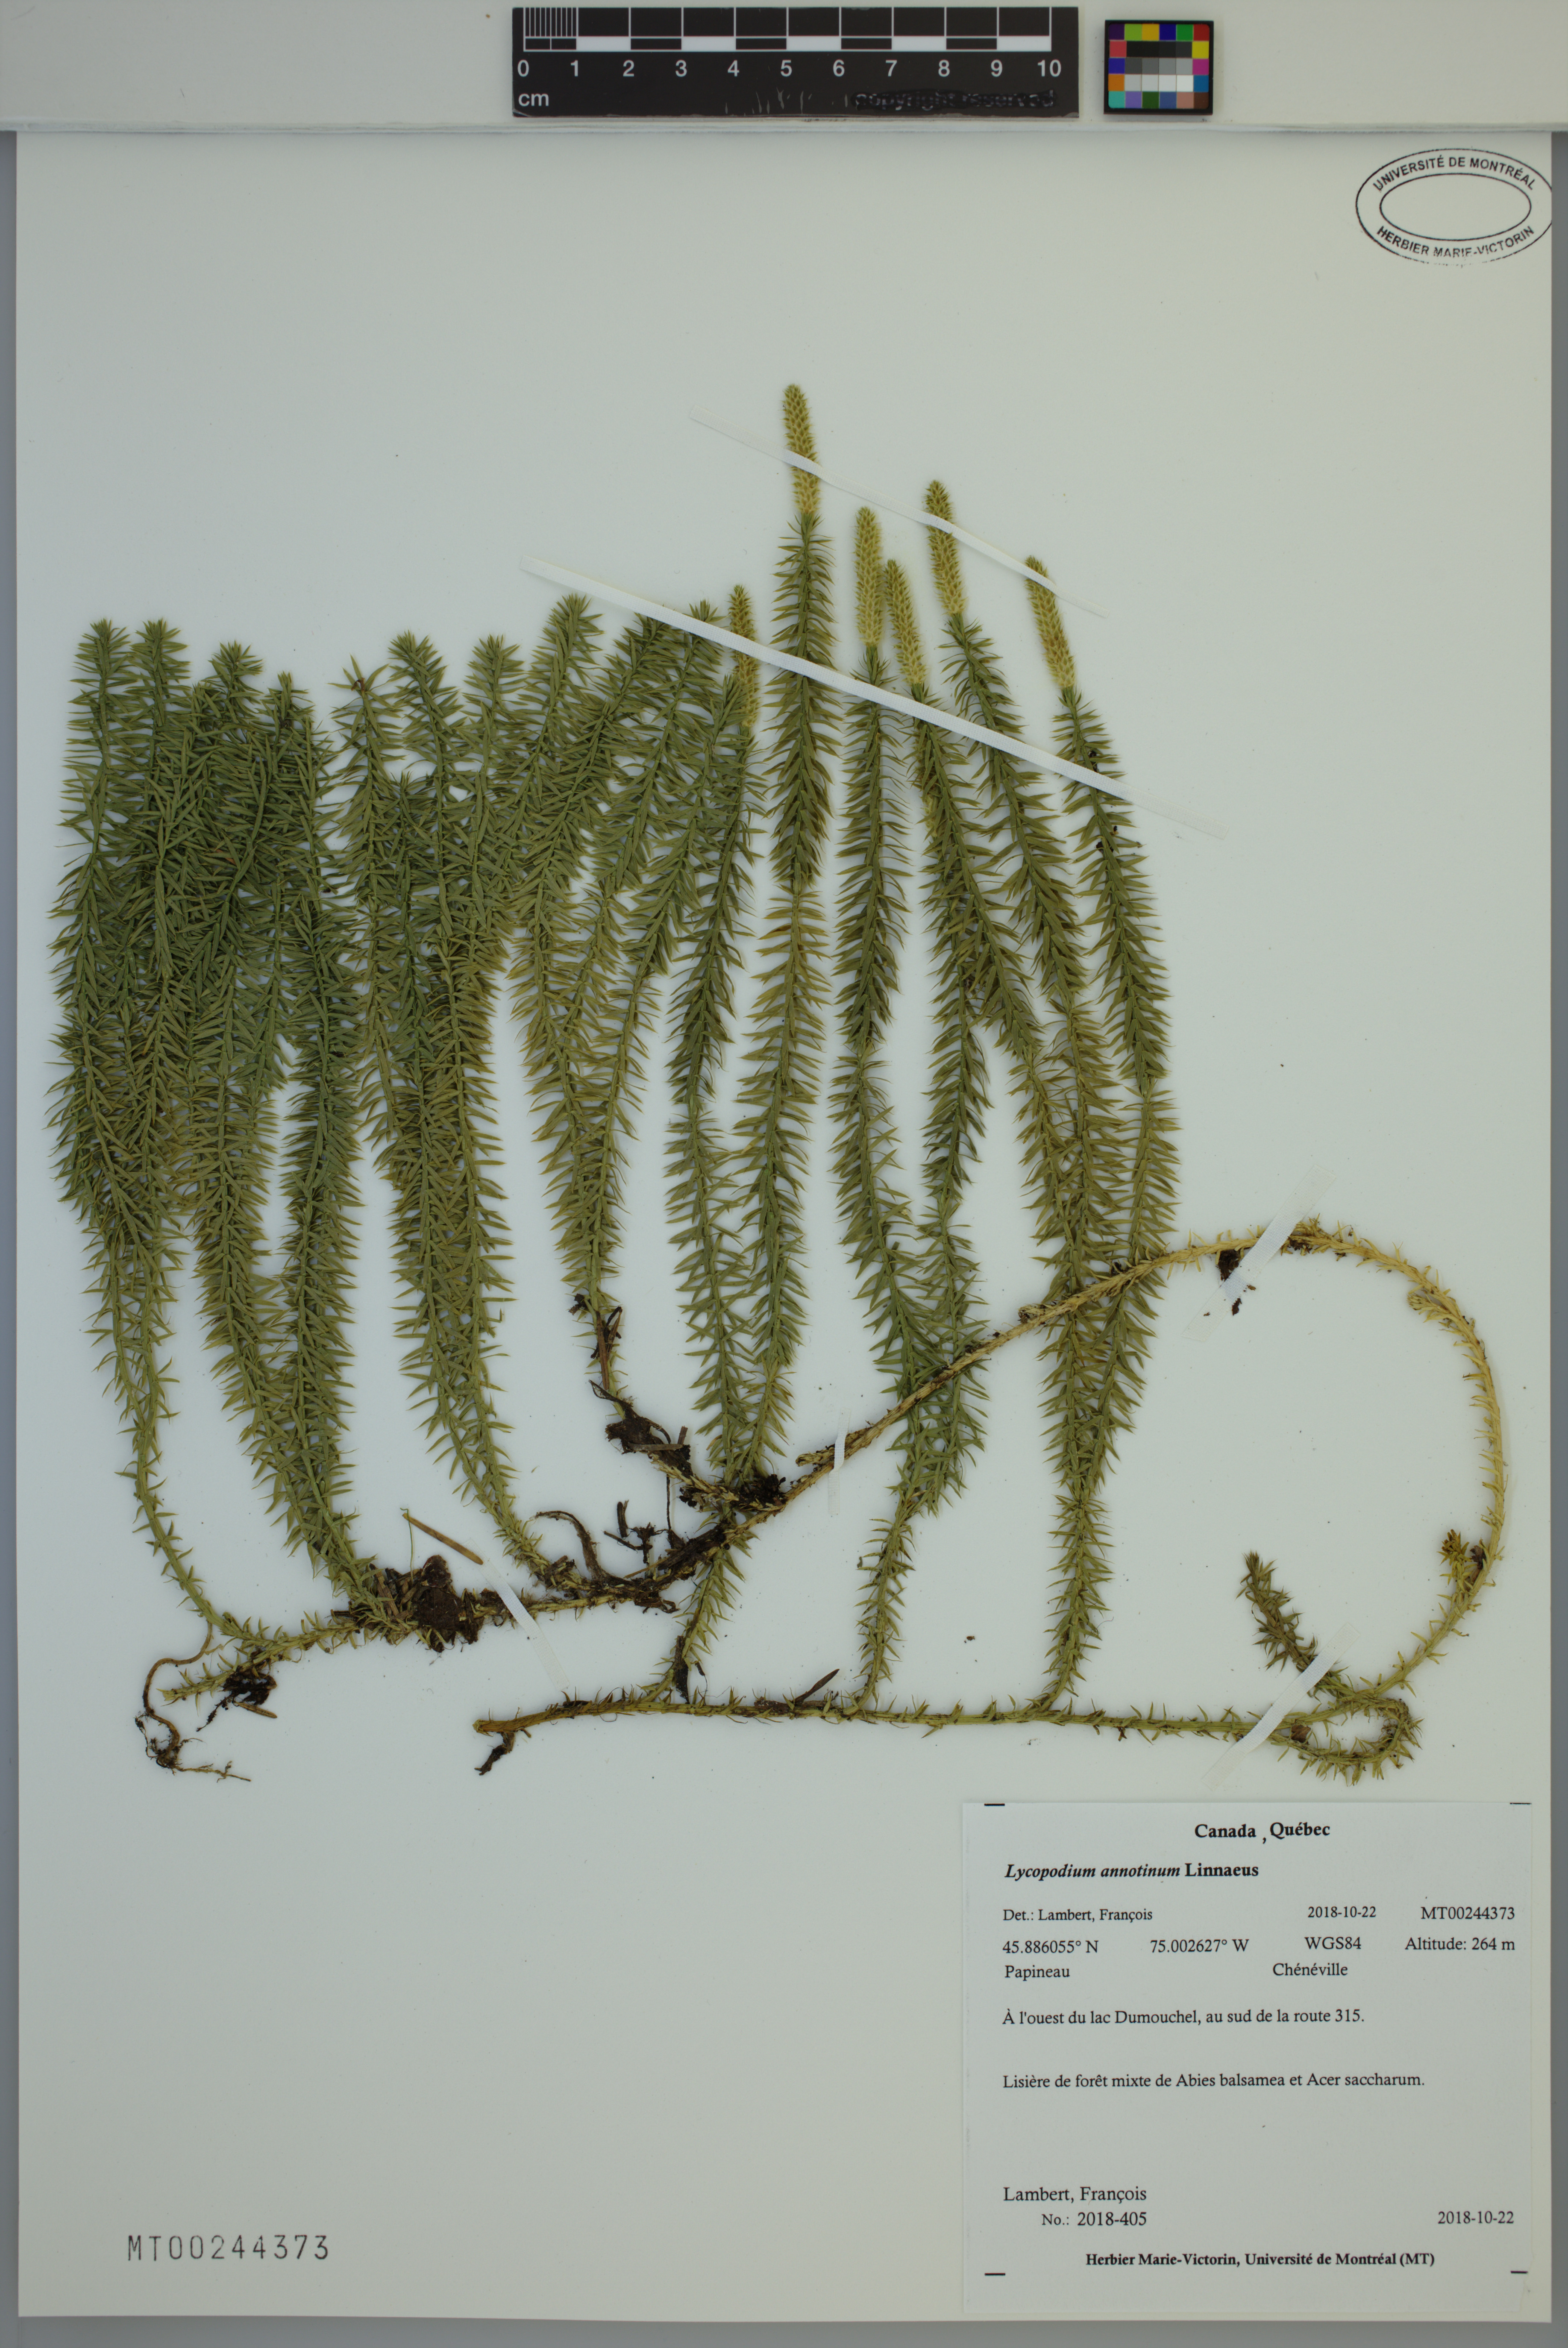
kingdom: Plantae
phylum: Tracheophyta
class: Lycopodiopsida
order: Lycopodiales
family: Lycopodiaceae
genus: Spinulum
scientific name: Spinulum annotinum
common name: Interrupted club-moss
